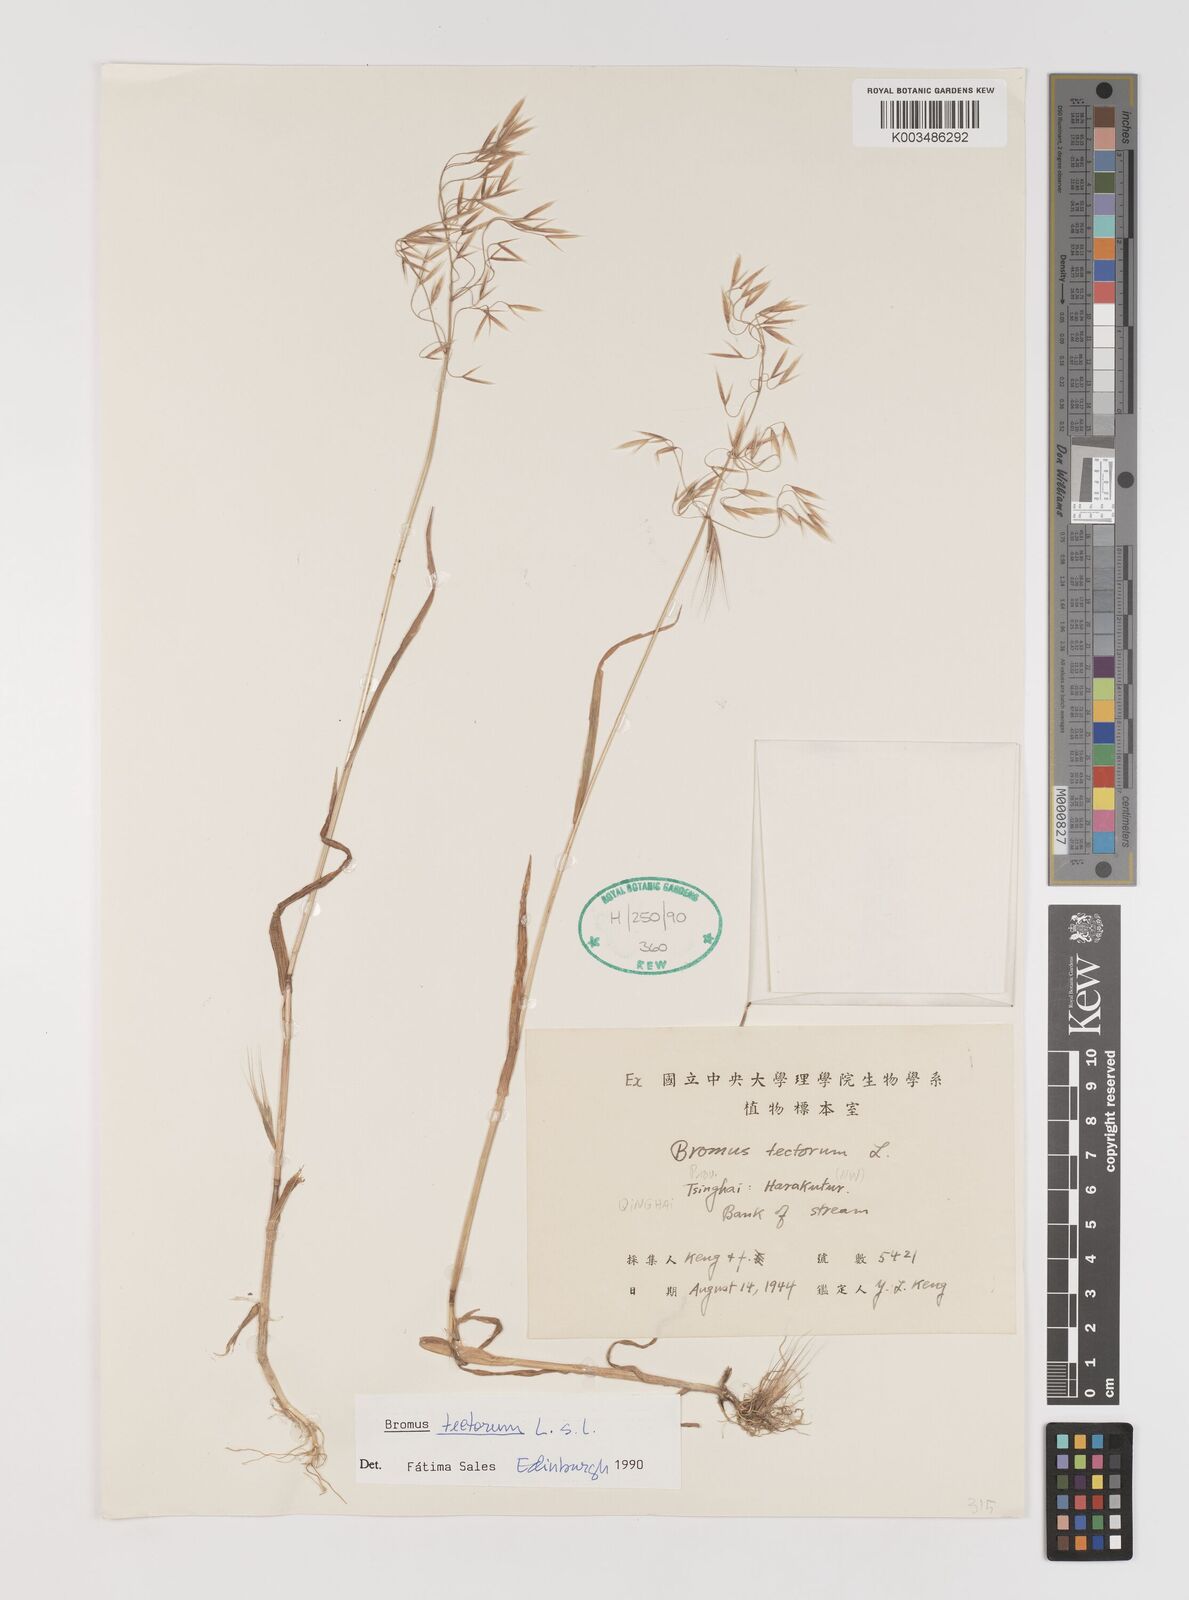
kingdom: Plantae
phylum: Tracheophyta
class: Liliopsida
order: Poales
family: Poaceae
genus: Bromus
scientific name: Bromus tectorum
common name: Cheatgrass
